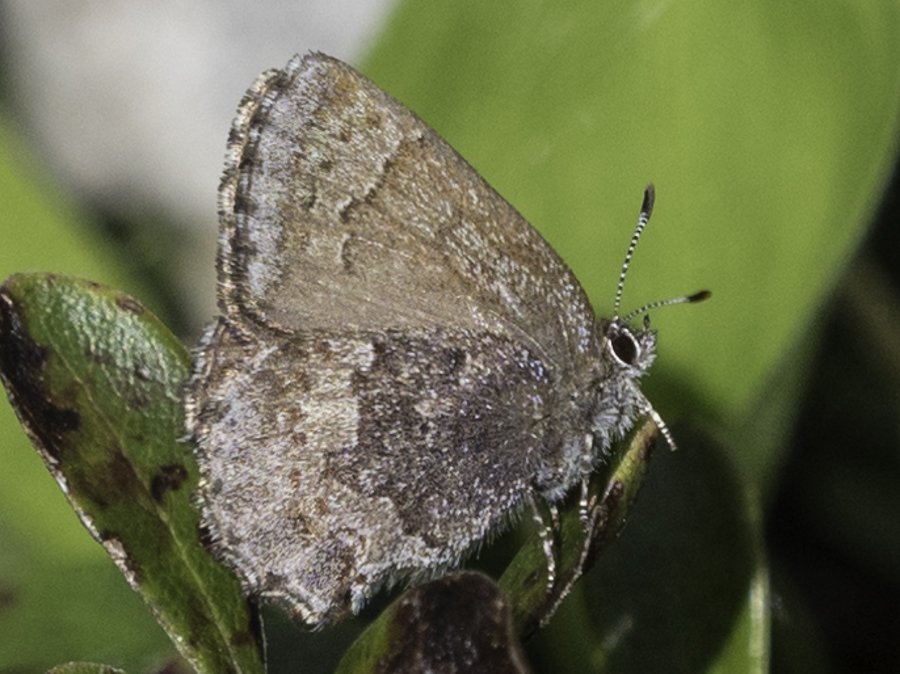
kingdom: Animalia
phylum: Arthropoda
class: Insecta
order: Lepidoptera
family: Lycaenidae
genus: Callophrys
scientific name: Callophrys polios
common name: Hoary Elfin
